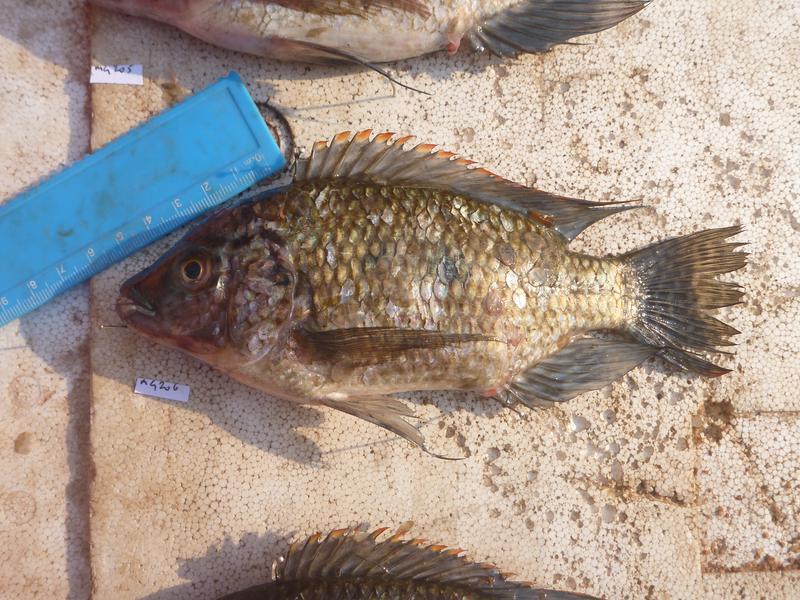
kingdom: Animalia
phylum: Chordata
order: Perciformes
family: Cichlidae
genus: Oreochromis
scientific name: Oreochromis karomo
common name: Karomo
